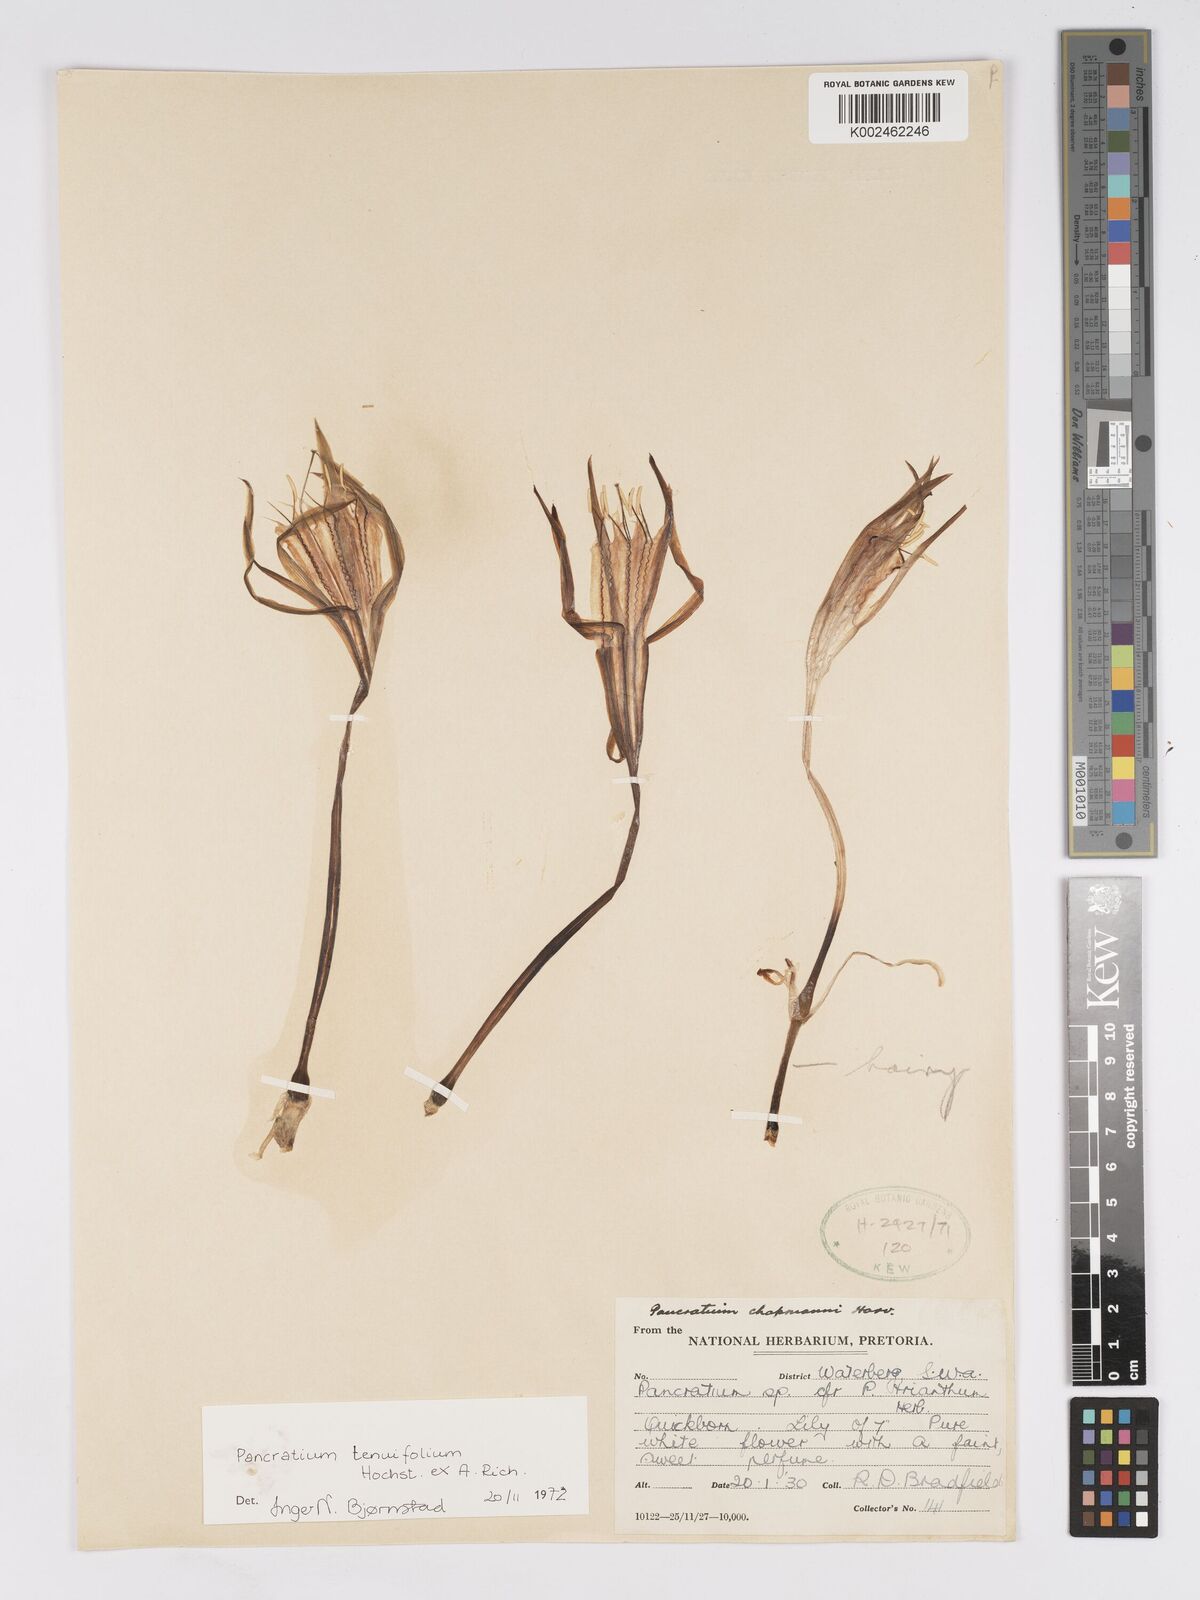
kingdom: Plantae
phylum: Tracheophyta
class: Liliopsida
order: Asparagales
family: Amaryllidaceae
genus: Pancratium
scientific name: Pancratium tenuifolium
